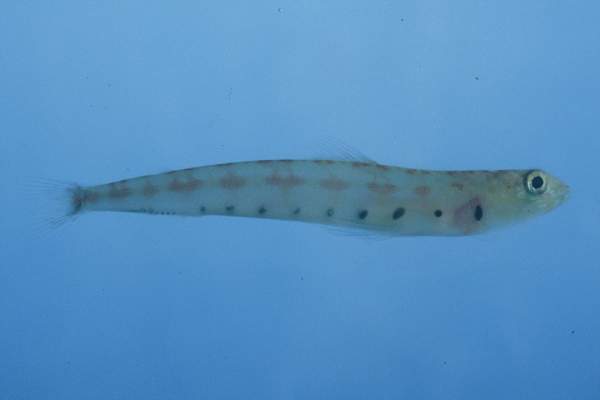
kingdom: Animalia
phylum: Chordata
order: Aulopiformes
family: Synodontidae
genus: Synodus
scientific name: Synodus
